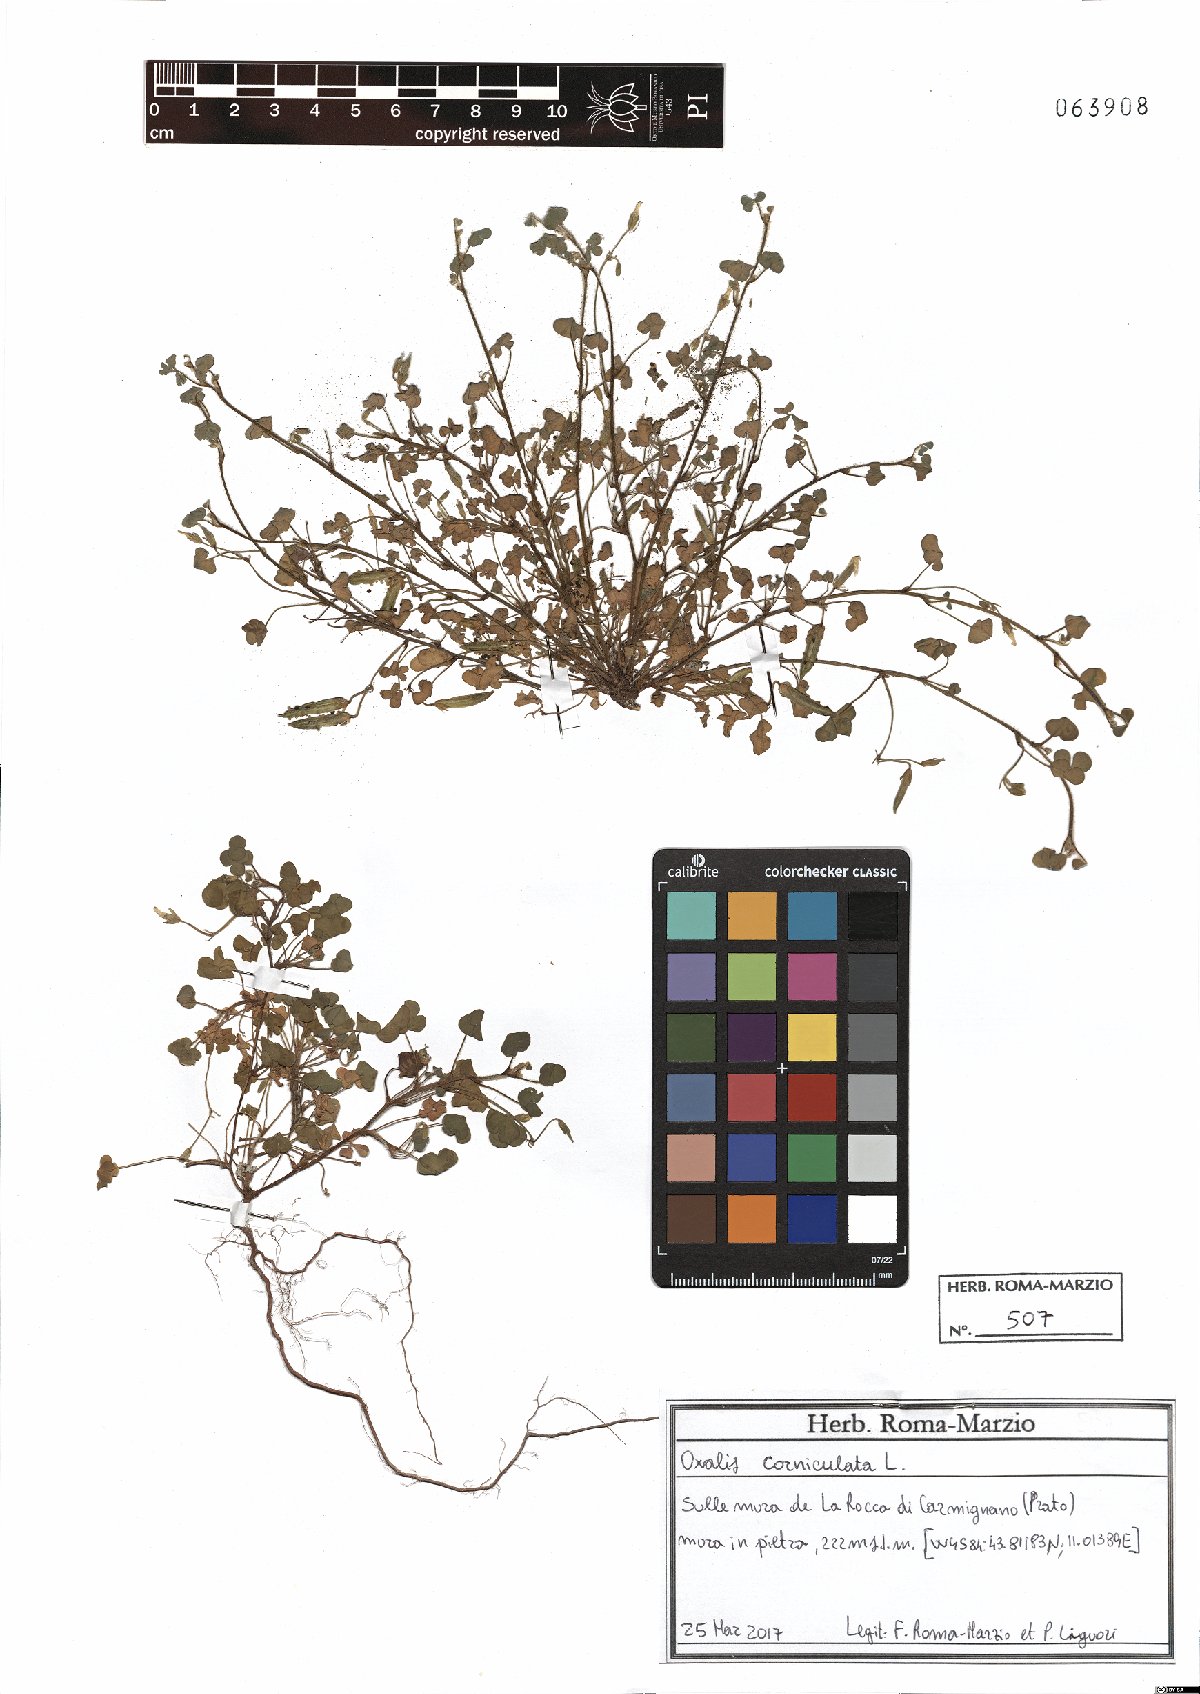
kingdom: Plantae
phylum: Tracheophyta
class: Magnoliopsida
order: Oxalidales
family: Oxalidaceae
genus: Oxalis
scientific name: Oxalis corniculata
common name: Procumbent yellow-sorrel
